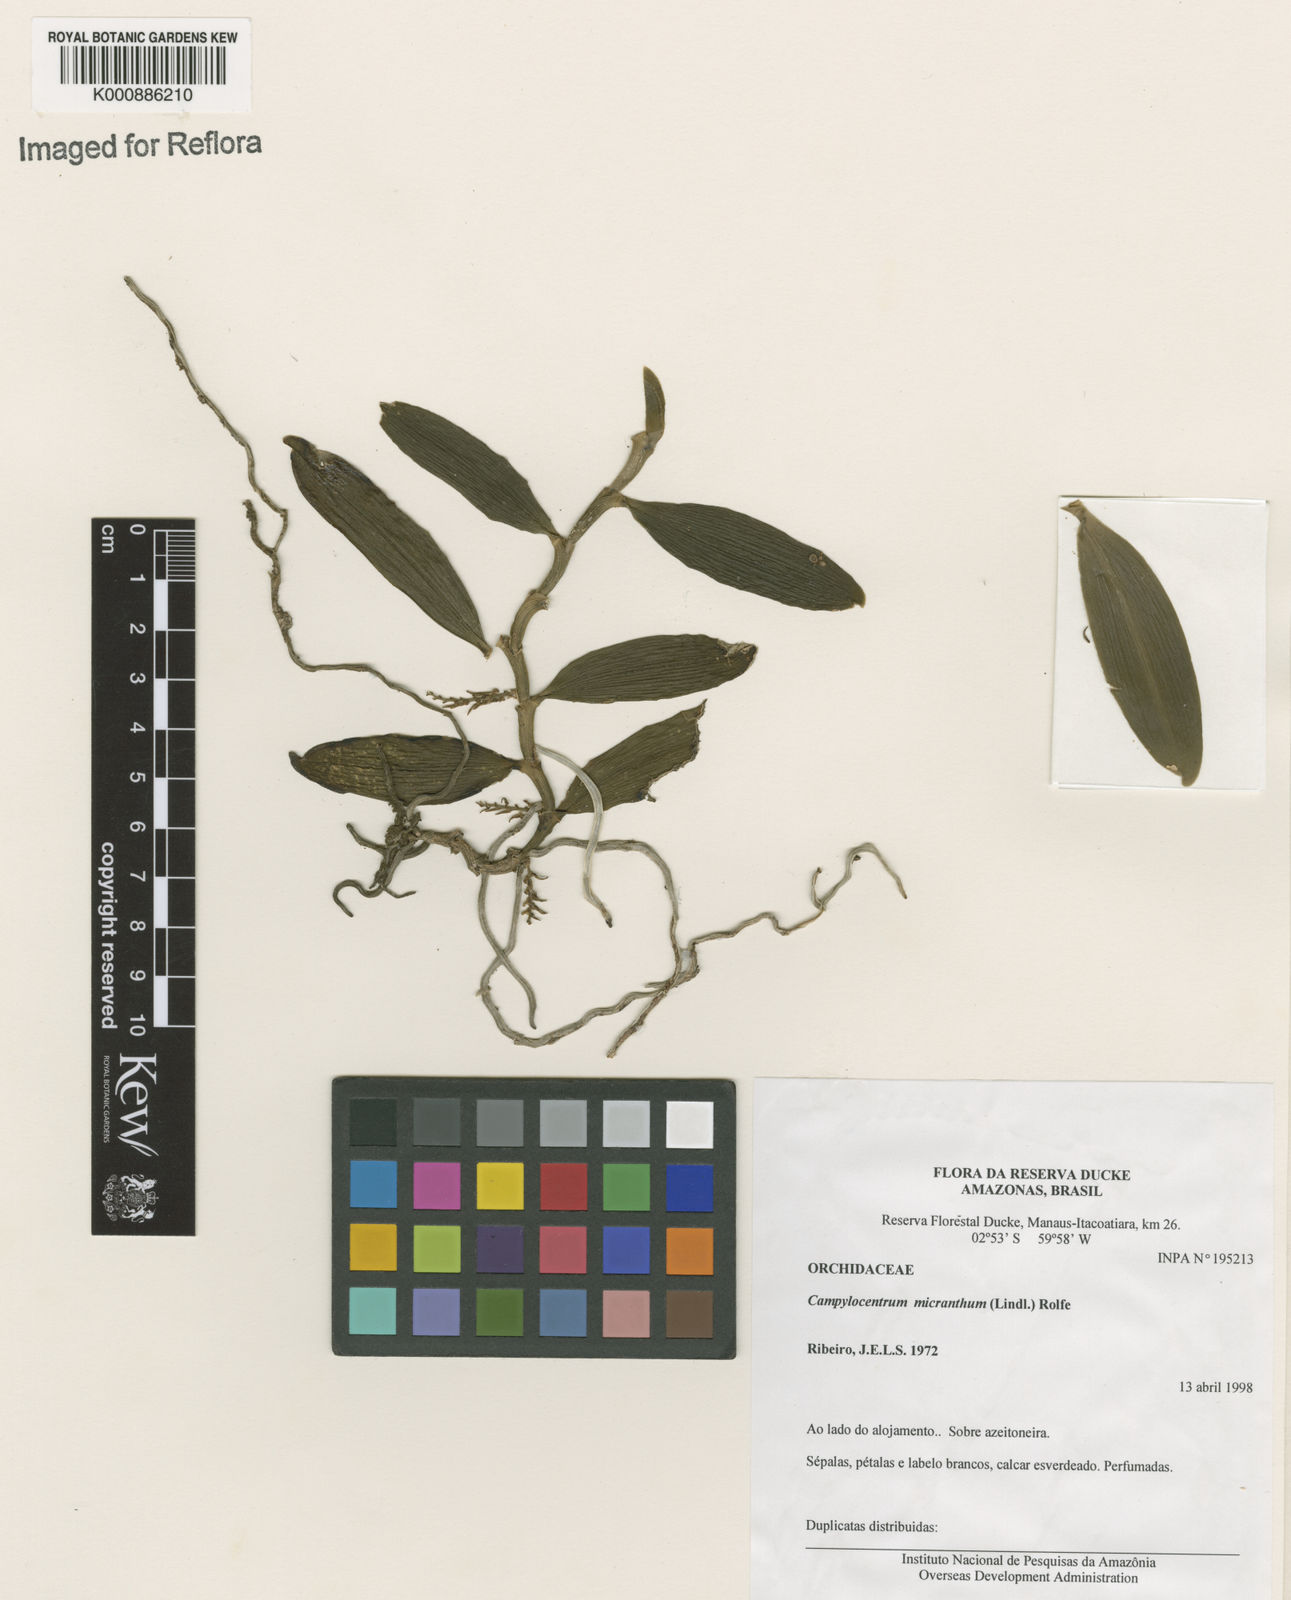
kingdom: Plantae
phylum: Tracheophyta
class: Liliopsida
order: Asparagales
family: Orchidaceae
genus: Campylocentrum
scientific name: Campylocentrum micranthum
